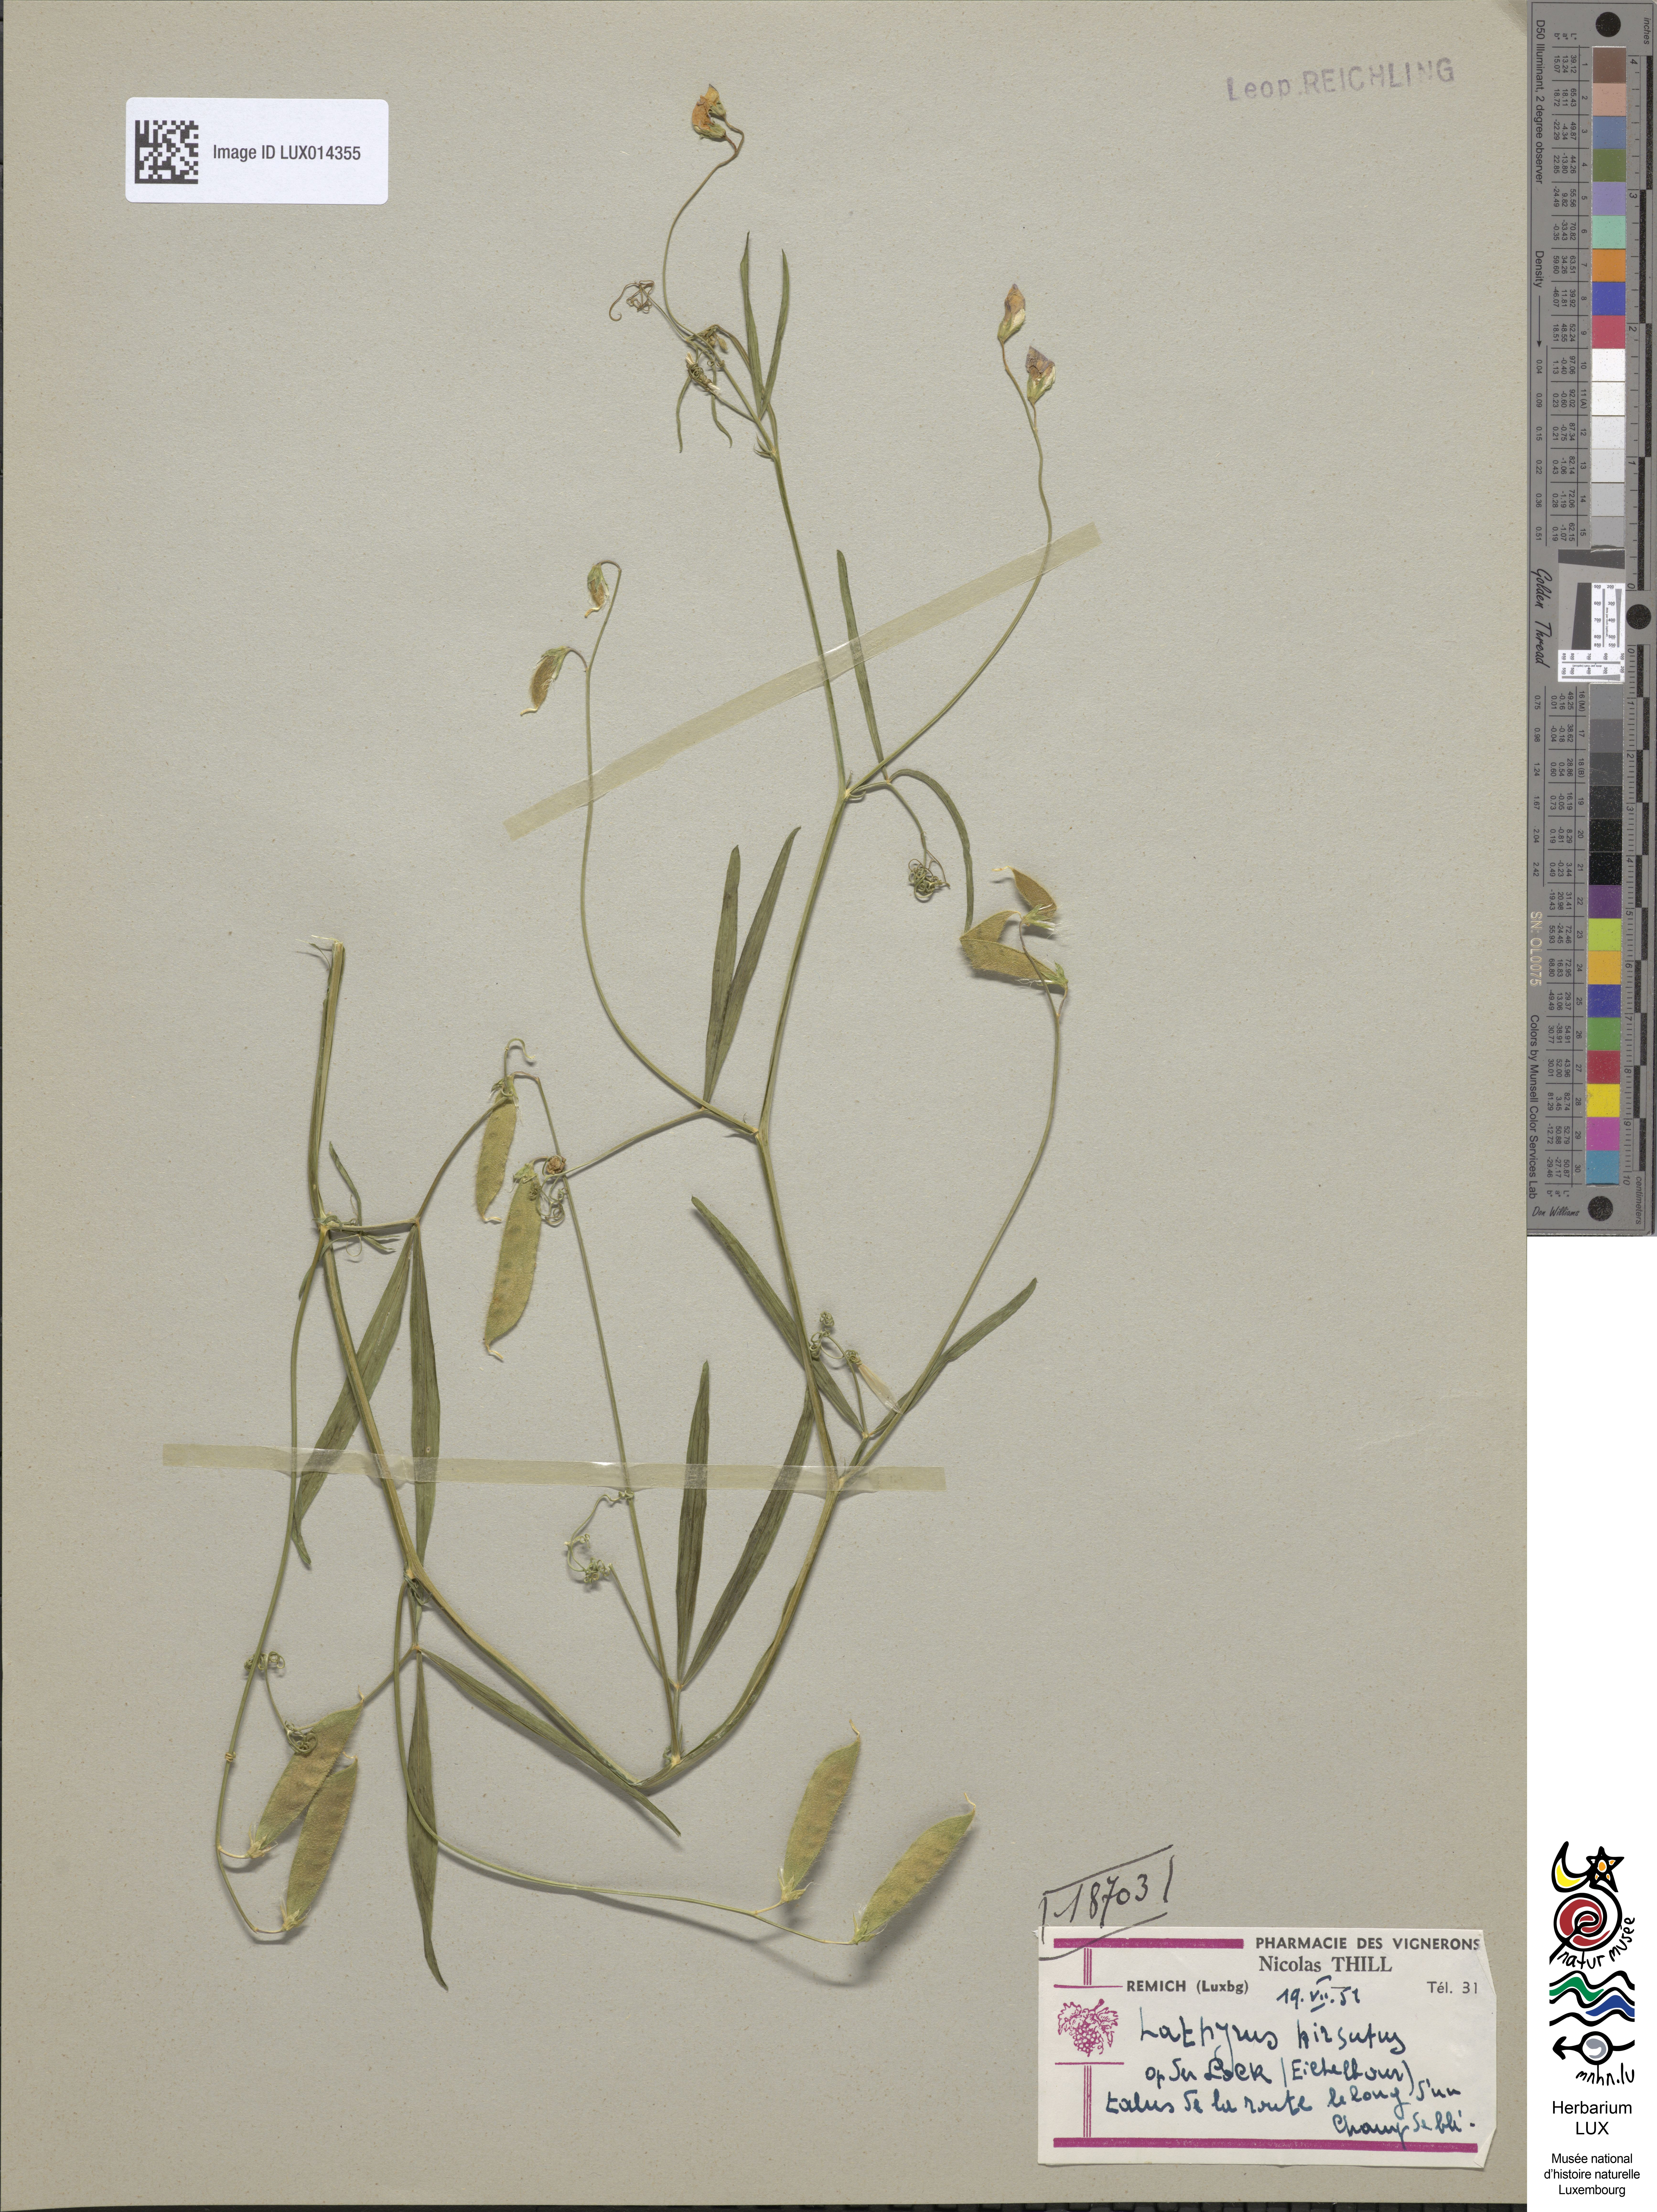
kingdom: Plantae
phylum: Tracheophyta
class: Magnoliopsida
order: Fabales
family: Fabaceae
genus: Lathyrus
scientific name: Lathyrus hirsutus
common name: Hairy vetchling
